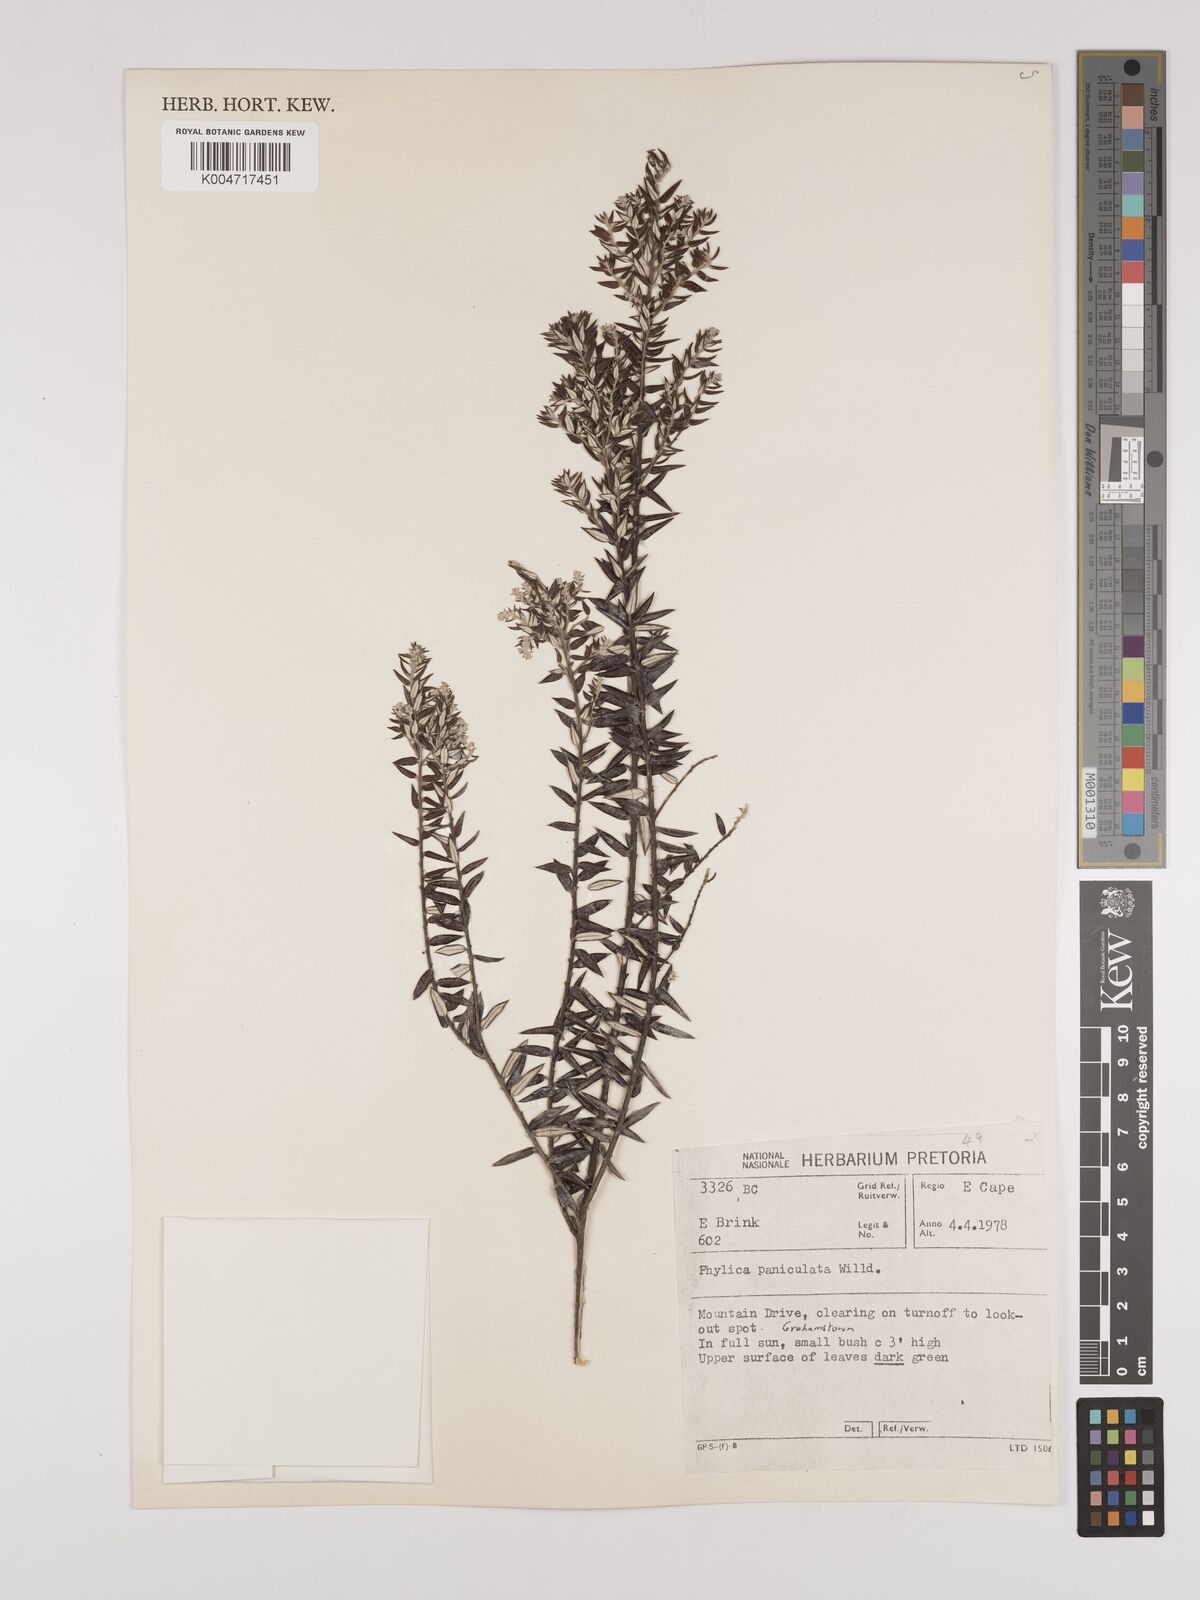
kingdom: Plantae
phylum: Tracheophyta
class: Magnoliopsida
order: Rosales
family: Rhamnaceae
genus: Phylica
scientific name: Phylica paniculata
